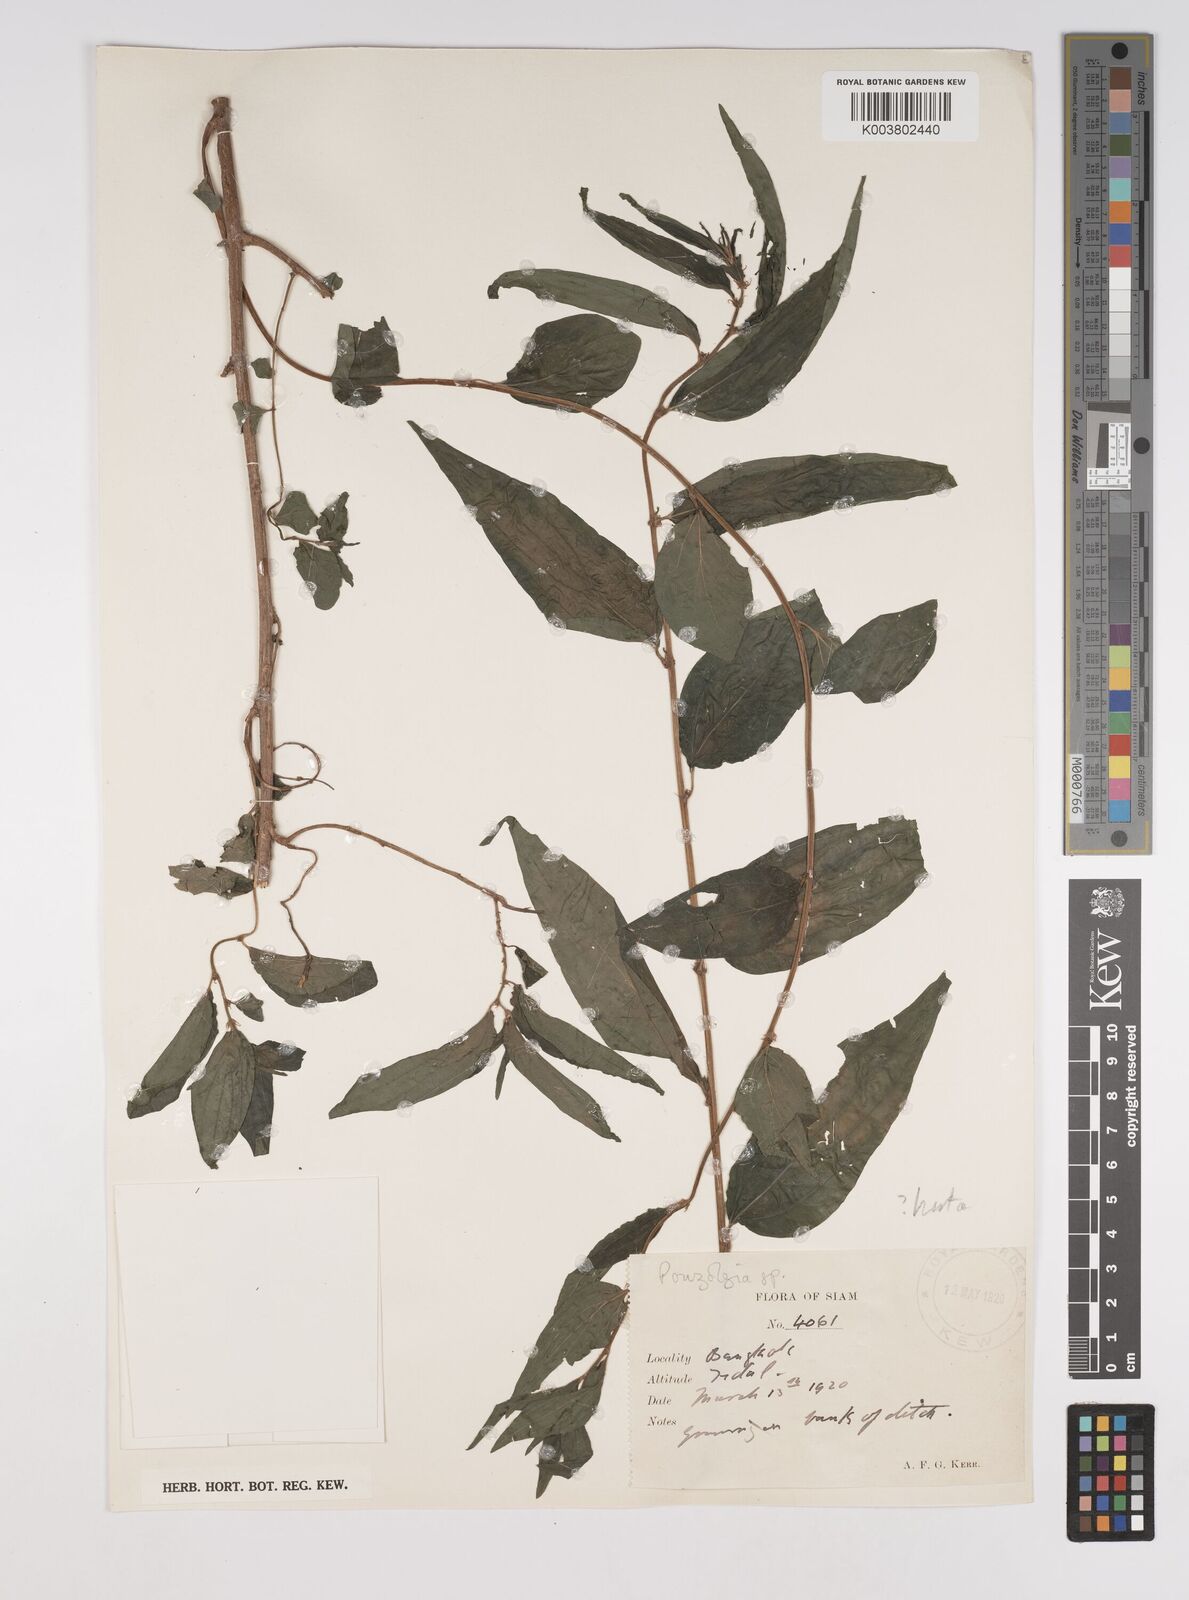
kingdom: Plantae
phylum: Tracheophyta
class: Magnoliopsida
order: Rosales
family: Urticaceae
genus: Gonostegia
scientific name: Gonostegia triandra
